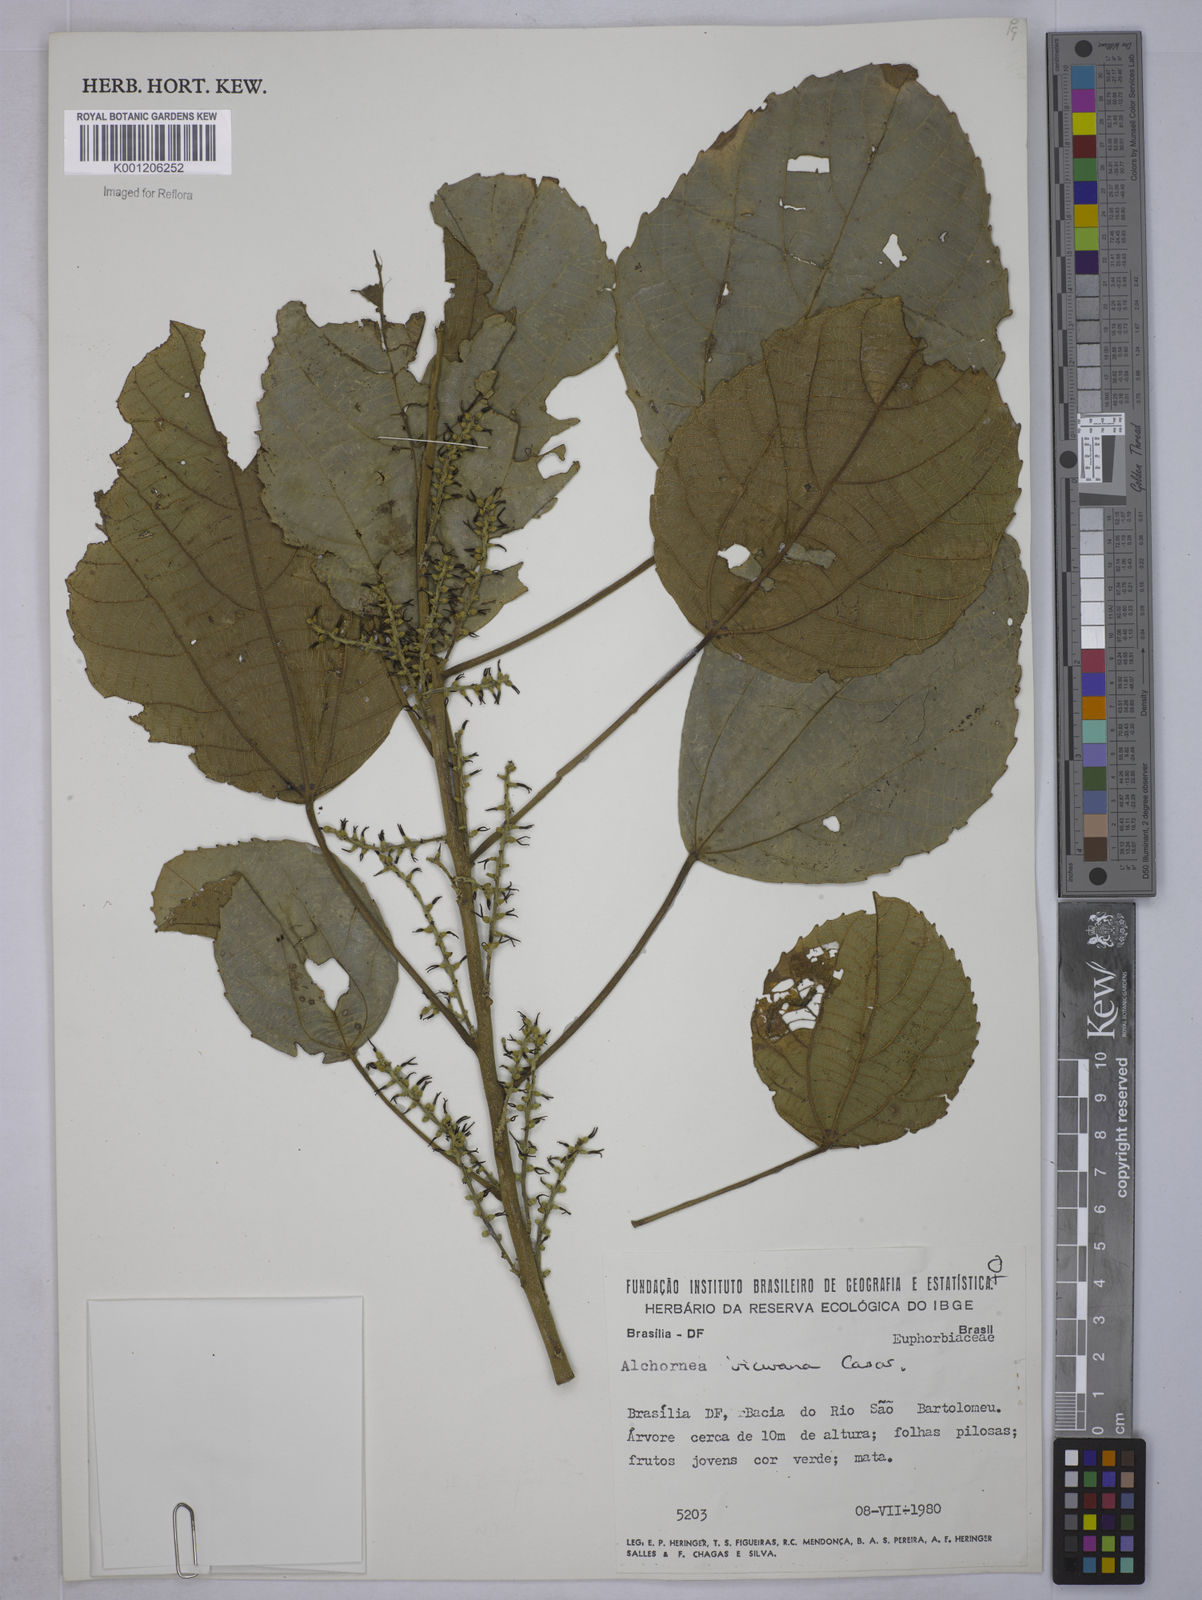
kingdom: Plantae
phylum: Tracheophyta
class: Magnoliopsida
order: Malpighiales
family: Euphorbiaceae
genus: Alchornea
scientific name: Alchornea glandulosa
